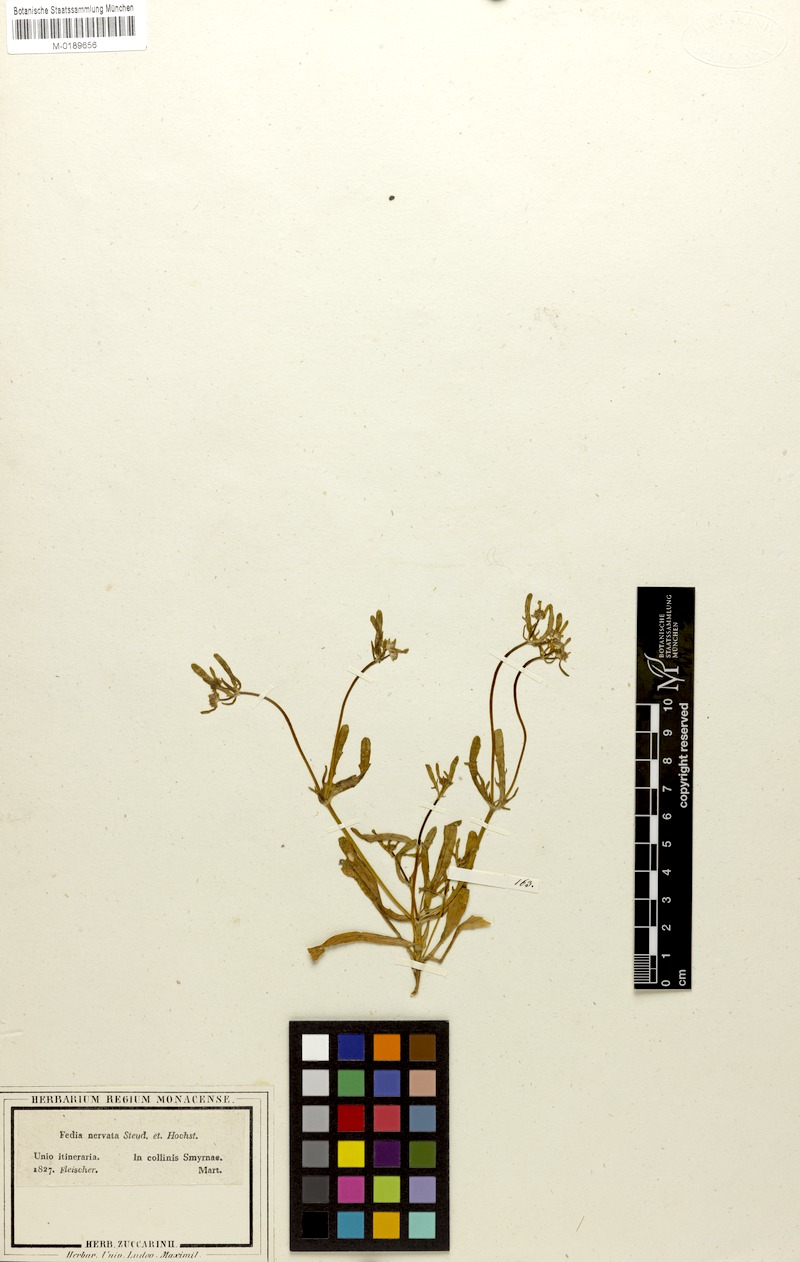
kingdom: Plantae
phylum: Tracheophyta
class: Magnoliopsida
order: Dipsacales
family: Caprifoliaceae
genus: Valerianella
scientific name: Valerianella obtusiloba
